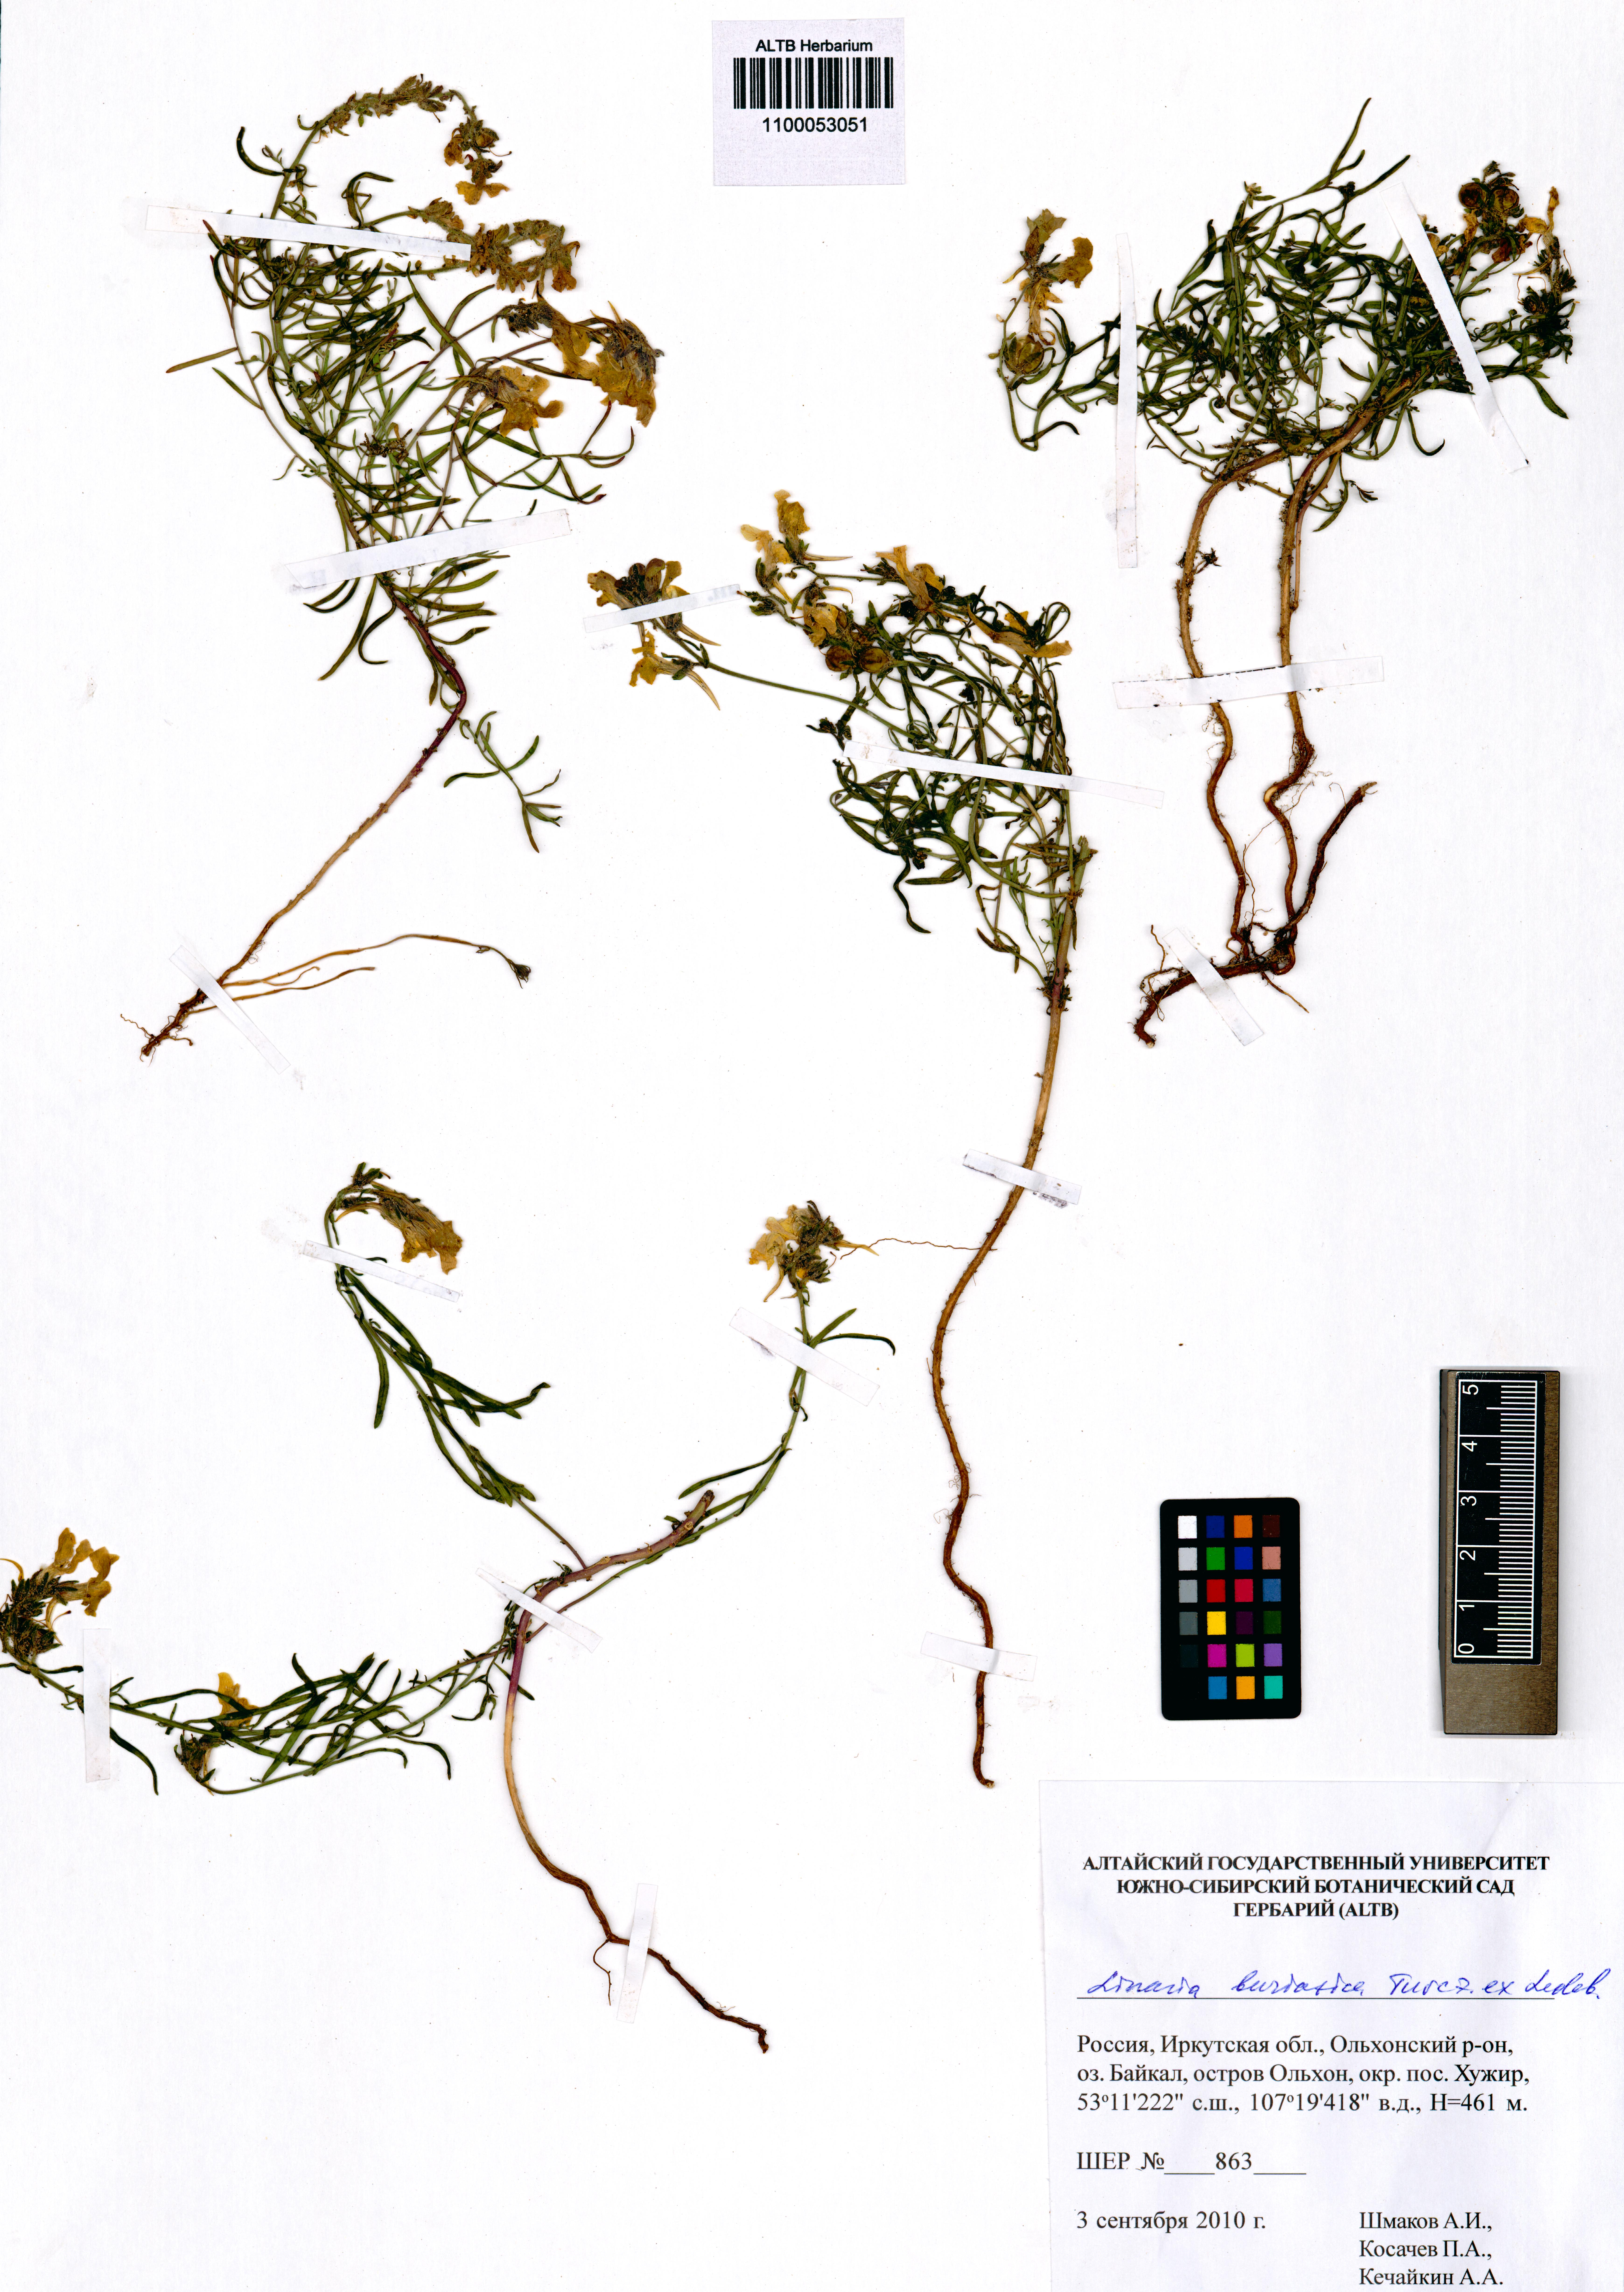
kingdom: Plantae
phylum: Tracheophyta
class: Magnoliopsida
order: Lamiales
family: Plantaginaceae
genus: Linaria
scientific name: Linaria buriatica
